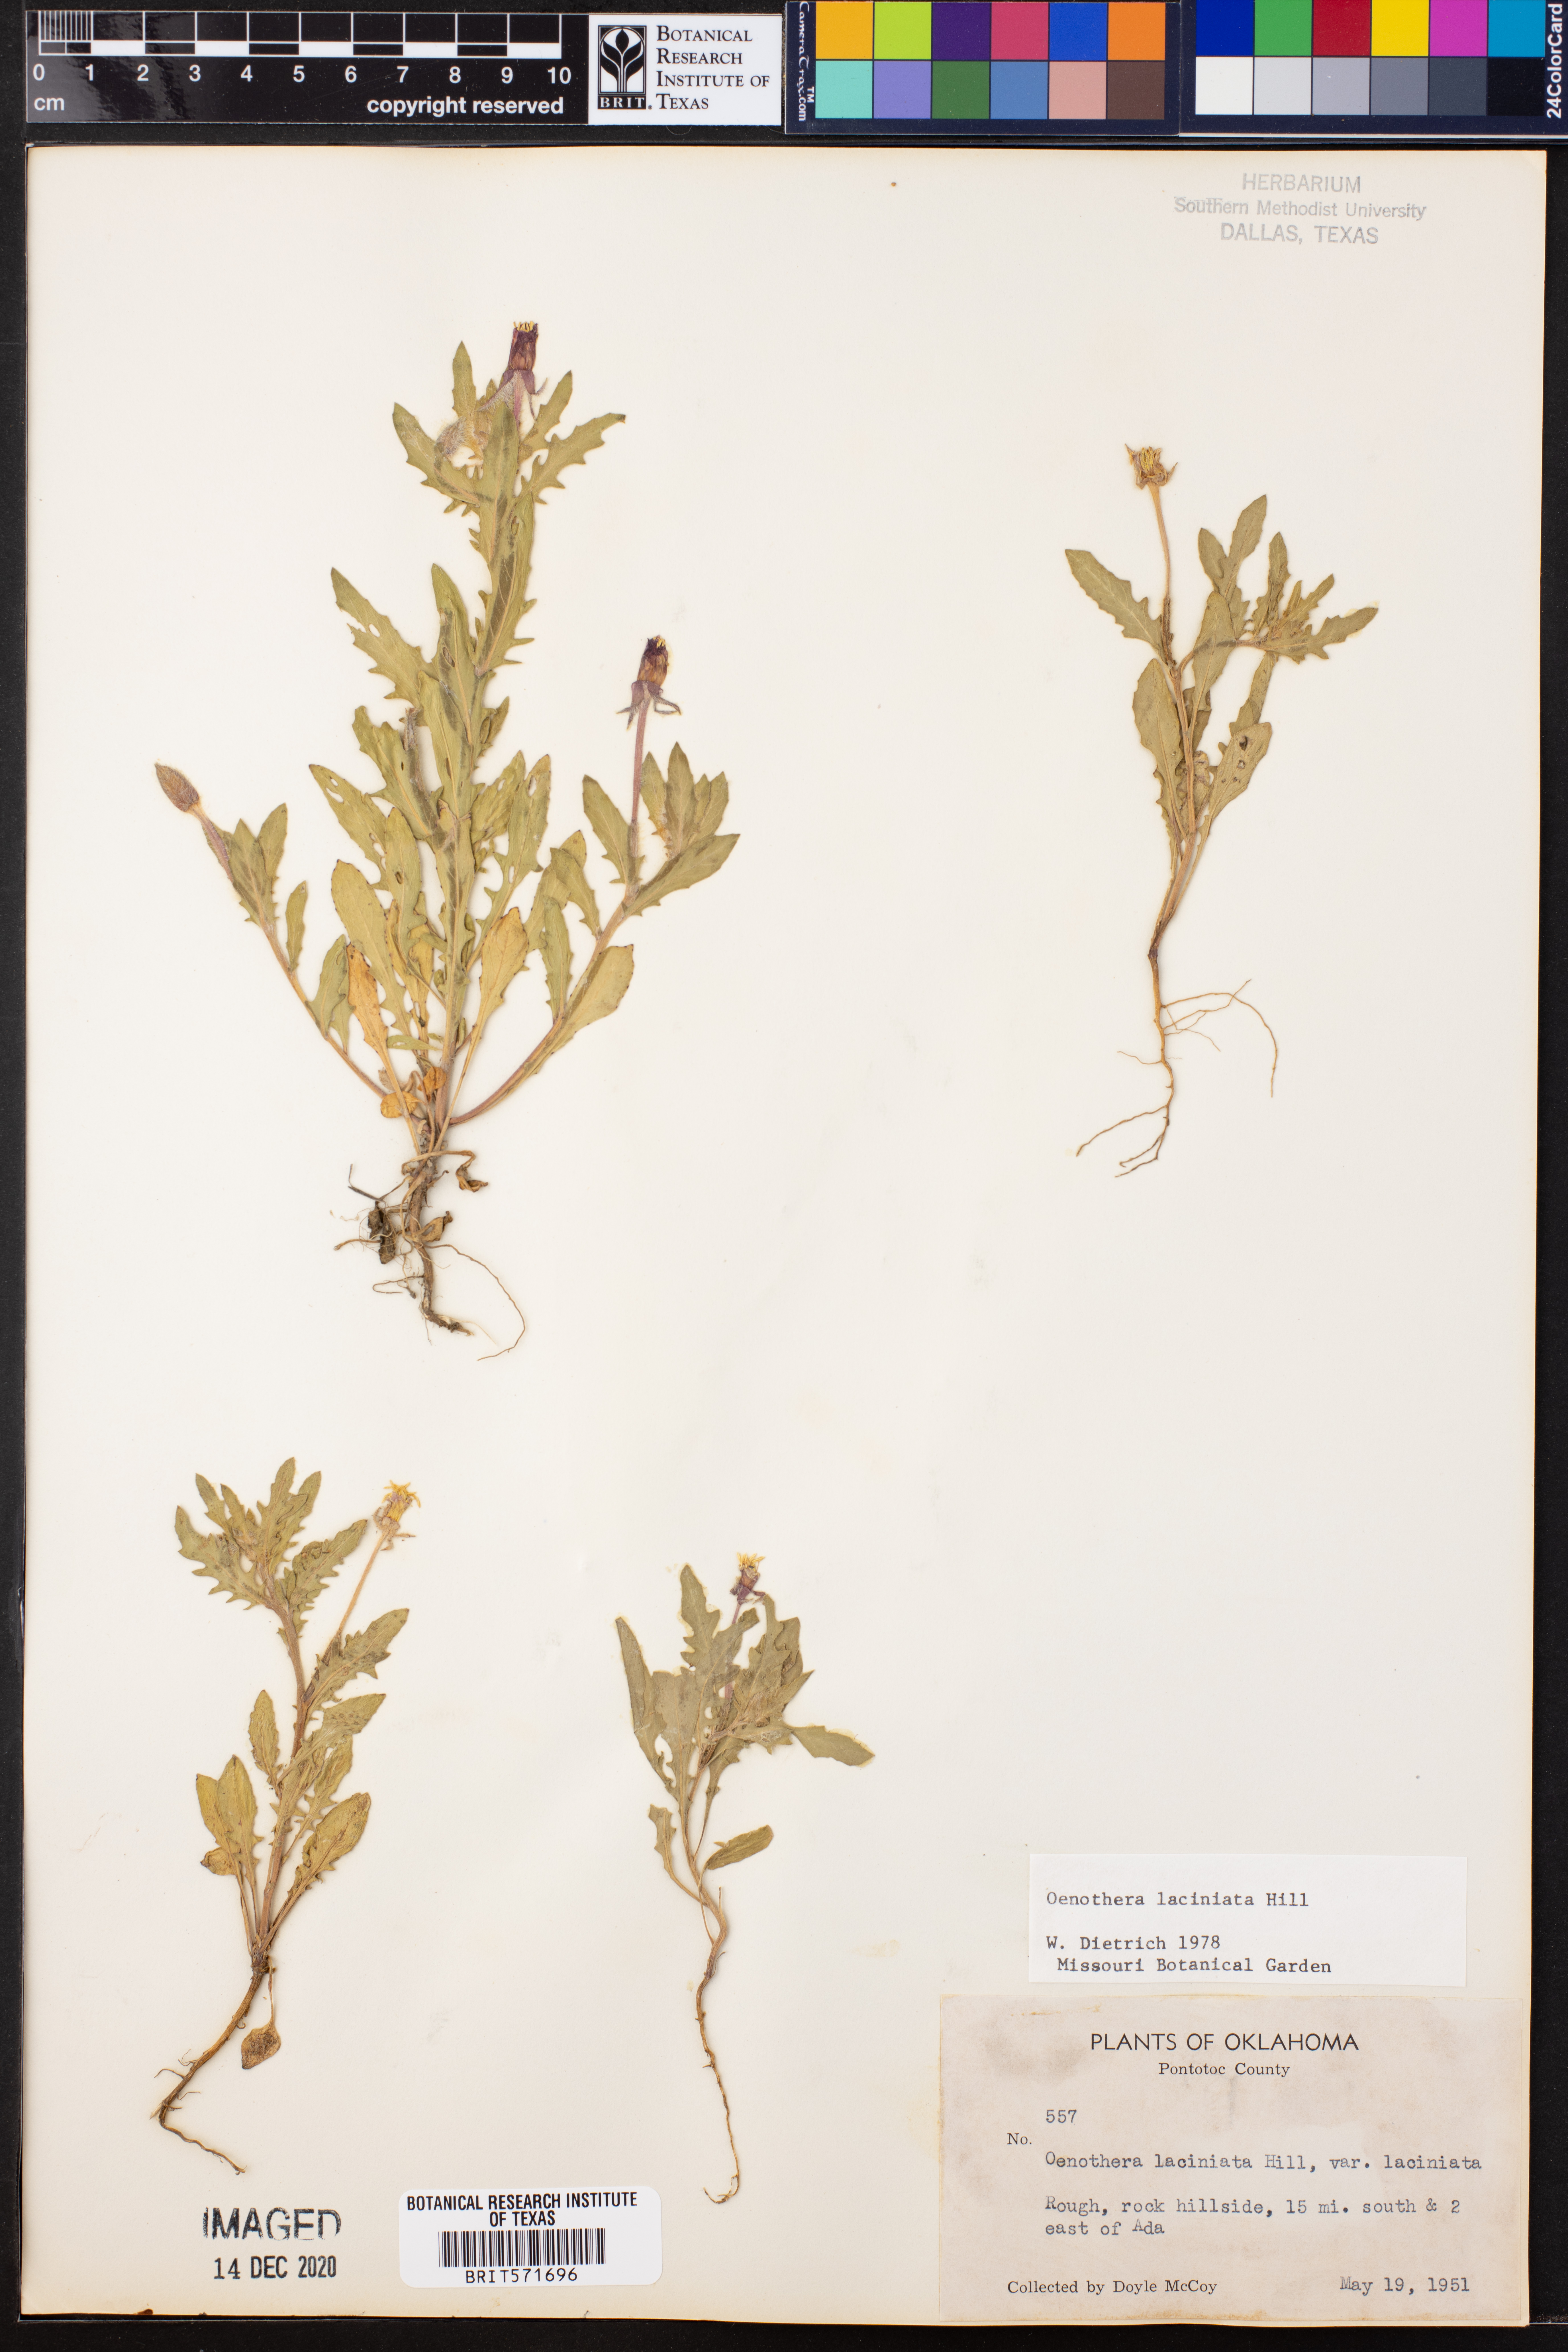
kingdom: Plantae
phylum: Tracheophyta
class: Magnoliopsida
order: Myrtales
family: Onagraceae
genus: Oenothera
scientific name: Oenothera laciniata
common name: Cut-leaved evening-primrose
